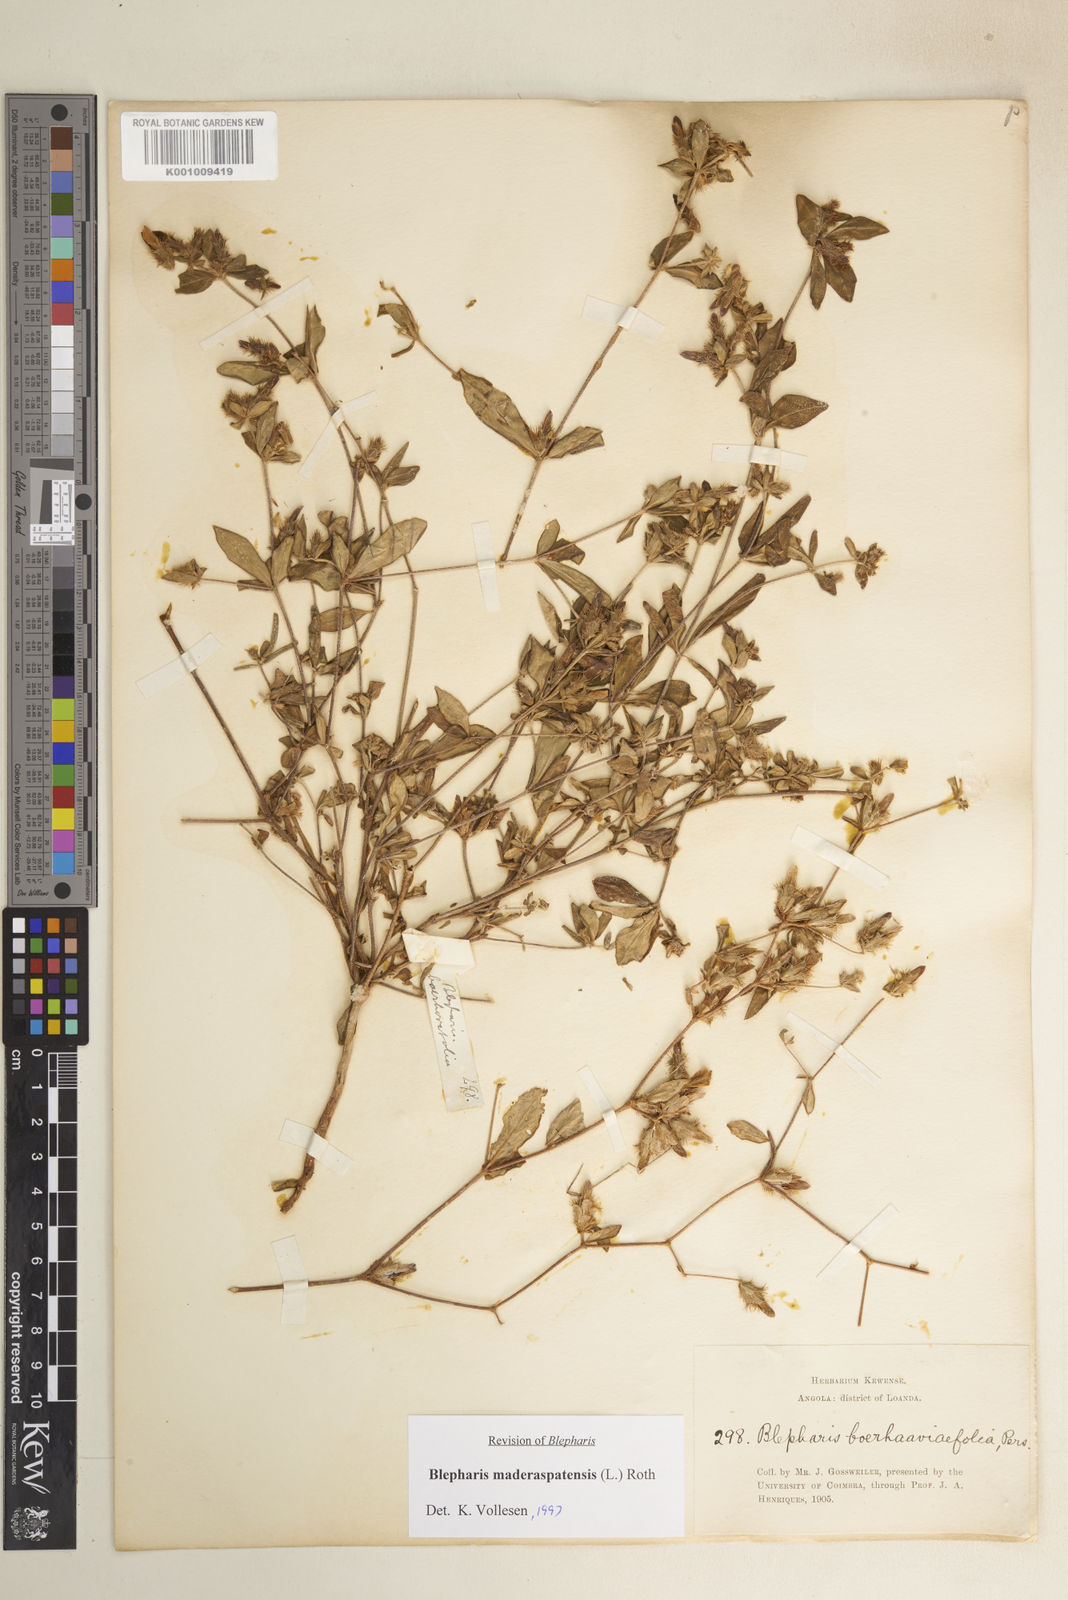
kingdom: Plantae
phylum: Tracheophyta
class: Magnoliopsida
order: Lamiales
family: Acanthaceae
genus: Blepharis
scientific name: Blepharis maderaspatensis
